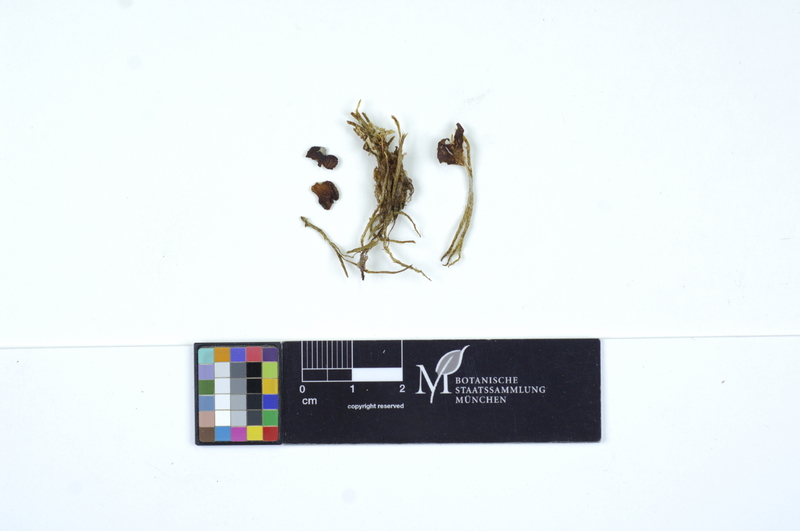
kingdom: Fungi
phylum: Basidiomycota
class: Agaricomycetes
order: Agaricales
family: Hygrophoraceae
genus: Arrhenia
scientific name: Arrhenia lobata
